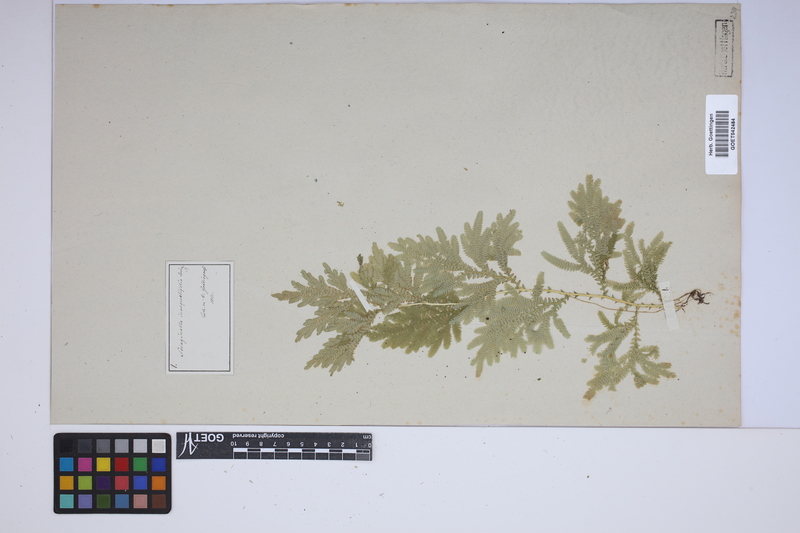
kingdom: Plantae
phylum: Tracheophyta
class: Lycopodiopsida
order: Selaginellales
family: Selaginellaceae
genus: Selaginella
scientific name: Selaginella inaequalifolia
